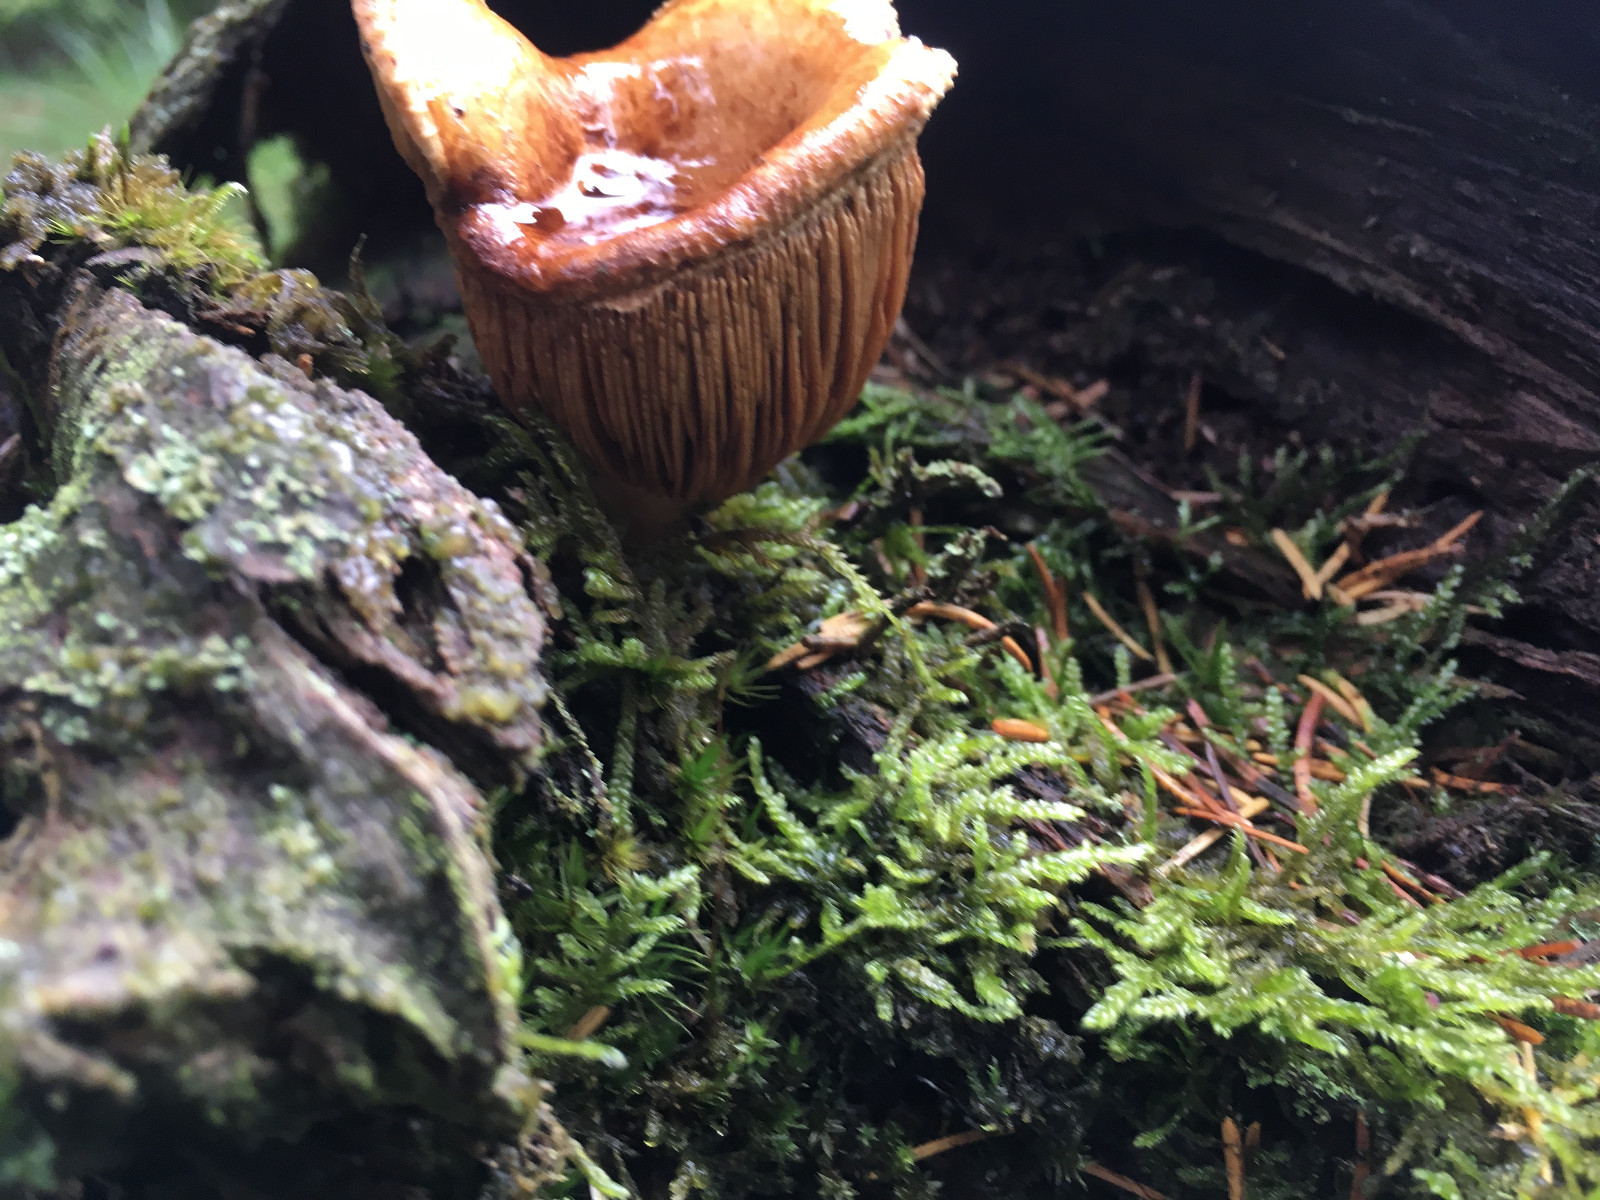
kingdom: Fungi
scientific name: Fungi
